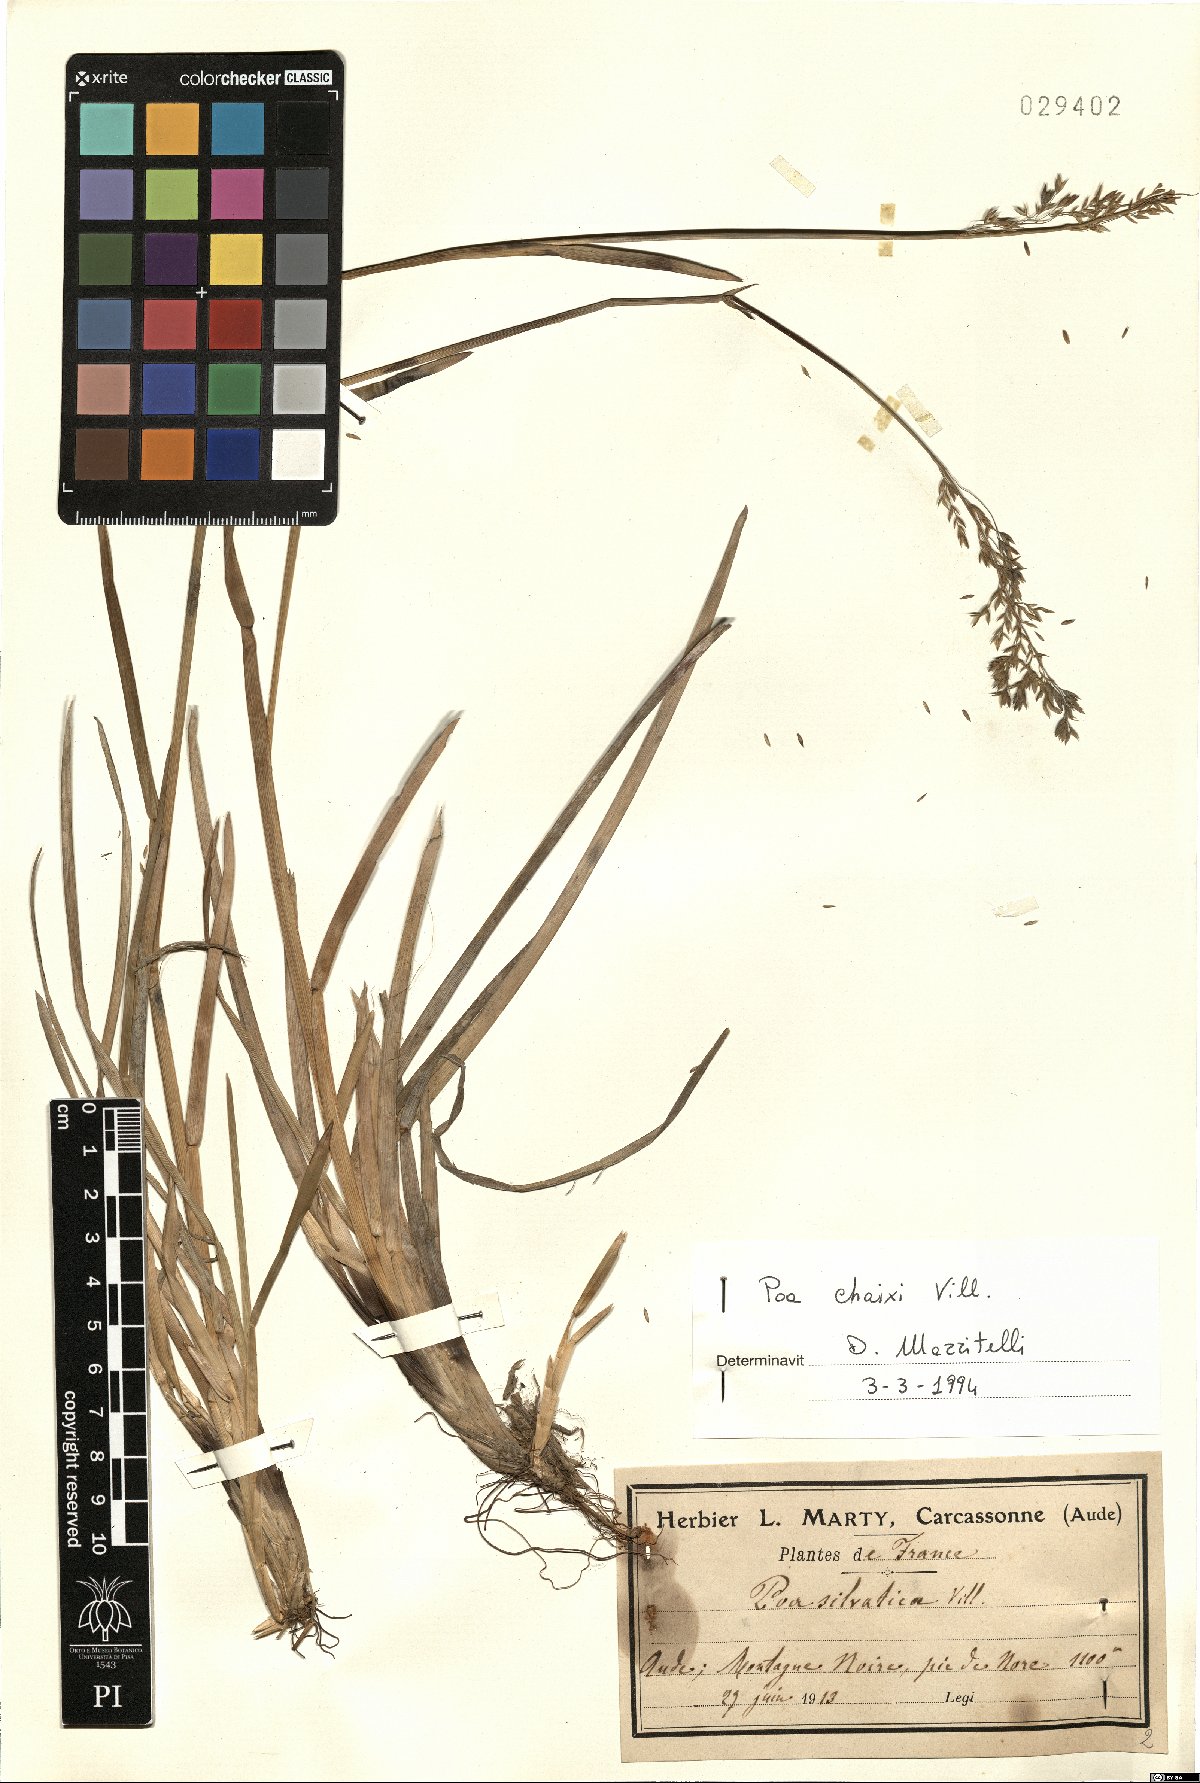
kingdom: Plantae
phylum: Tracheophyta
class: Liliopsida
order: Poales
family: Poaceae
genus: Poa
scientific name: Poa chaixii
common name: Broad-leaved meadow-grass
